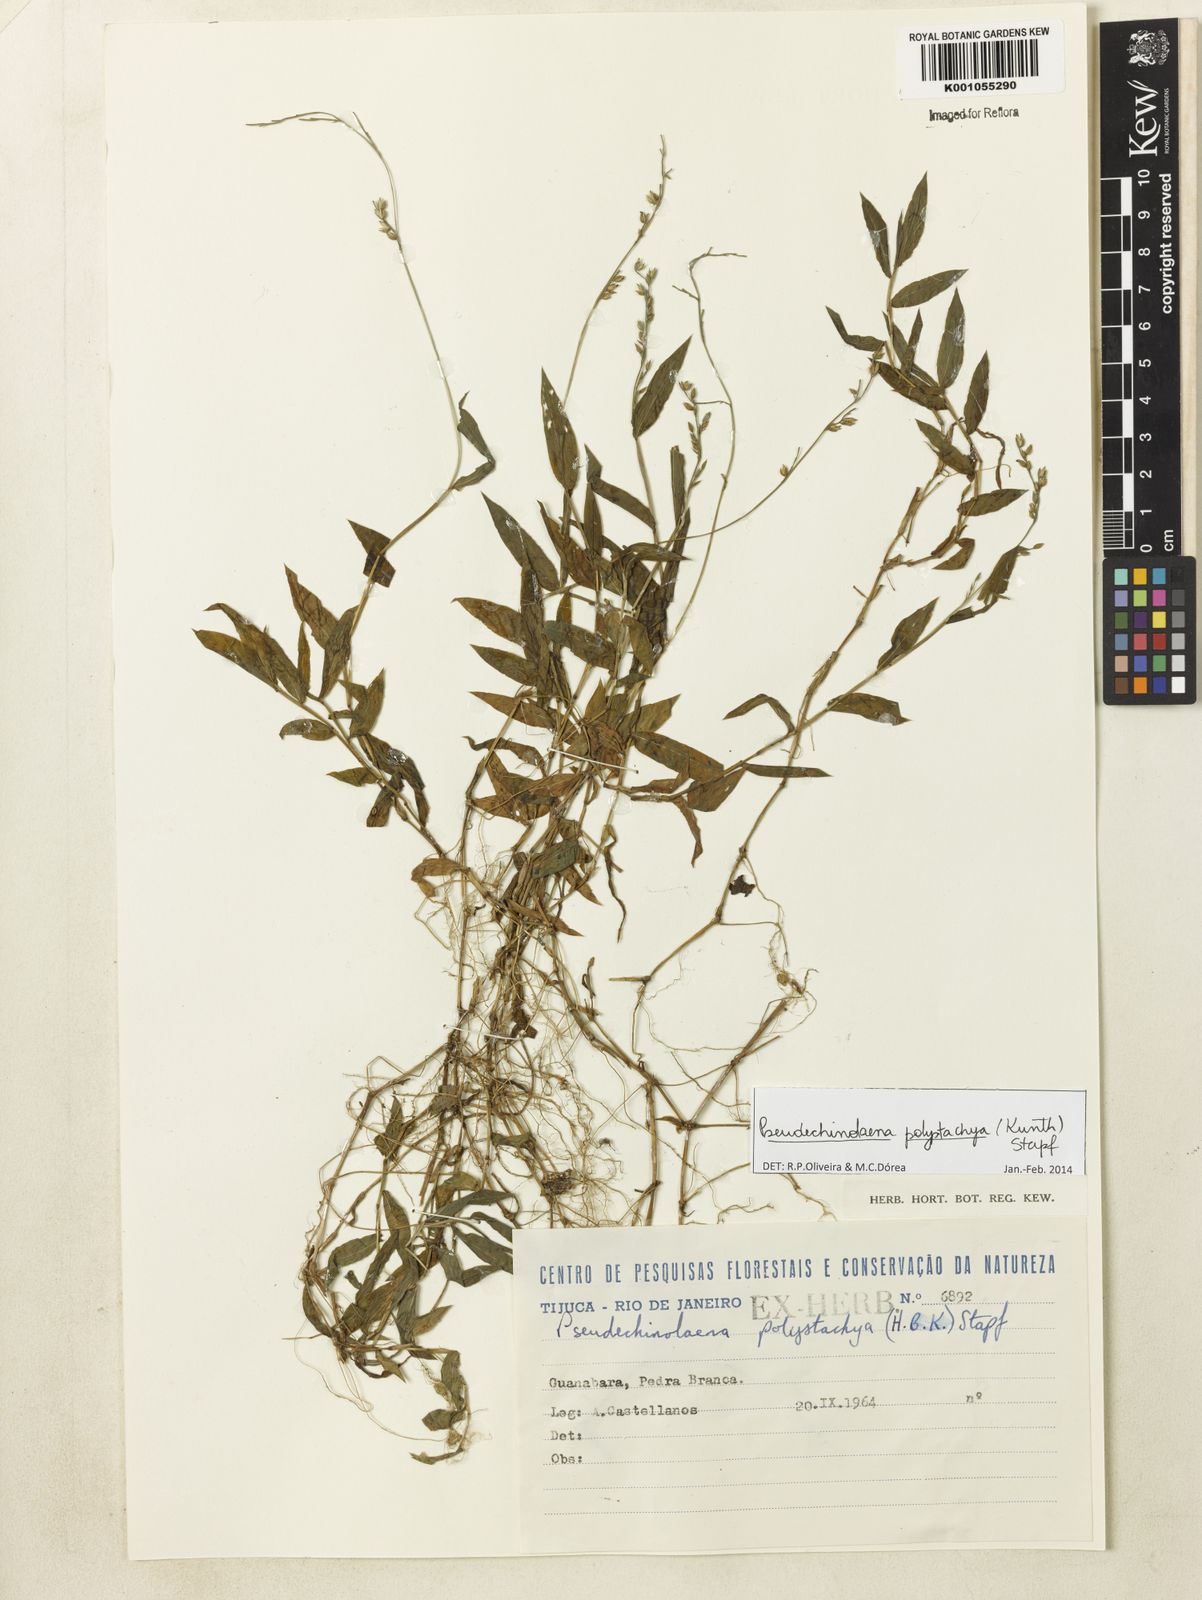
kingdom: Plantae
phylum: Tracheophyta
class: Liliopsida
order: Poales
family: Poaceae
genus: Pseudechinolaena
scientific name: Pseudechinolaena polystachya
